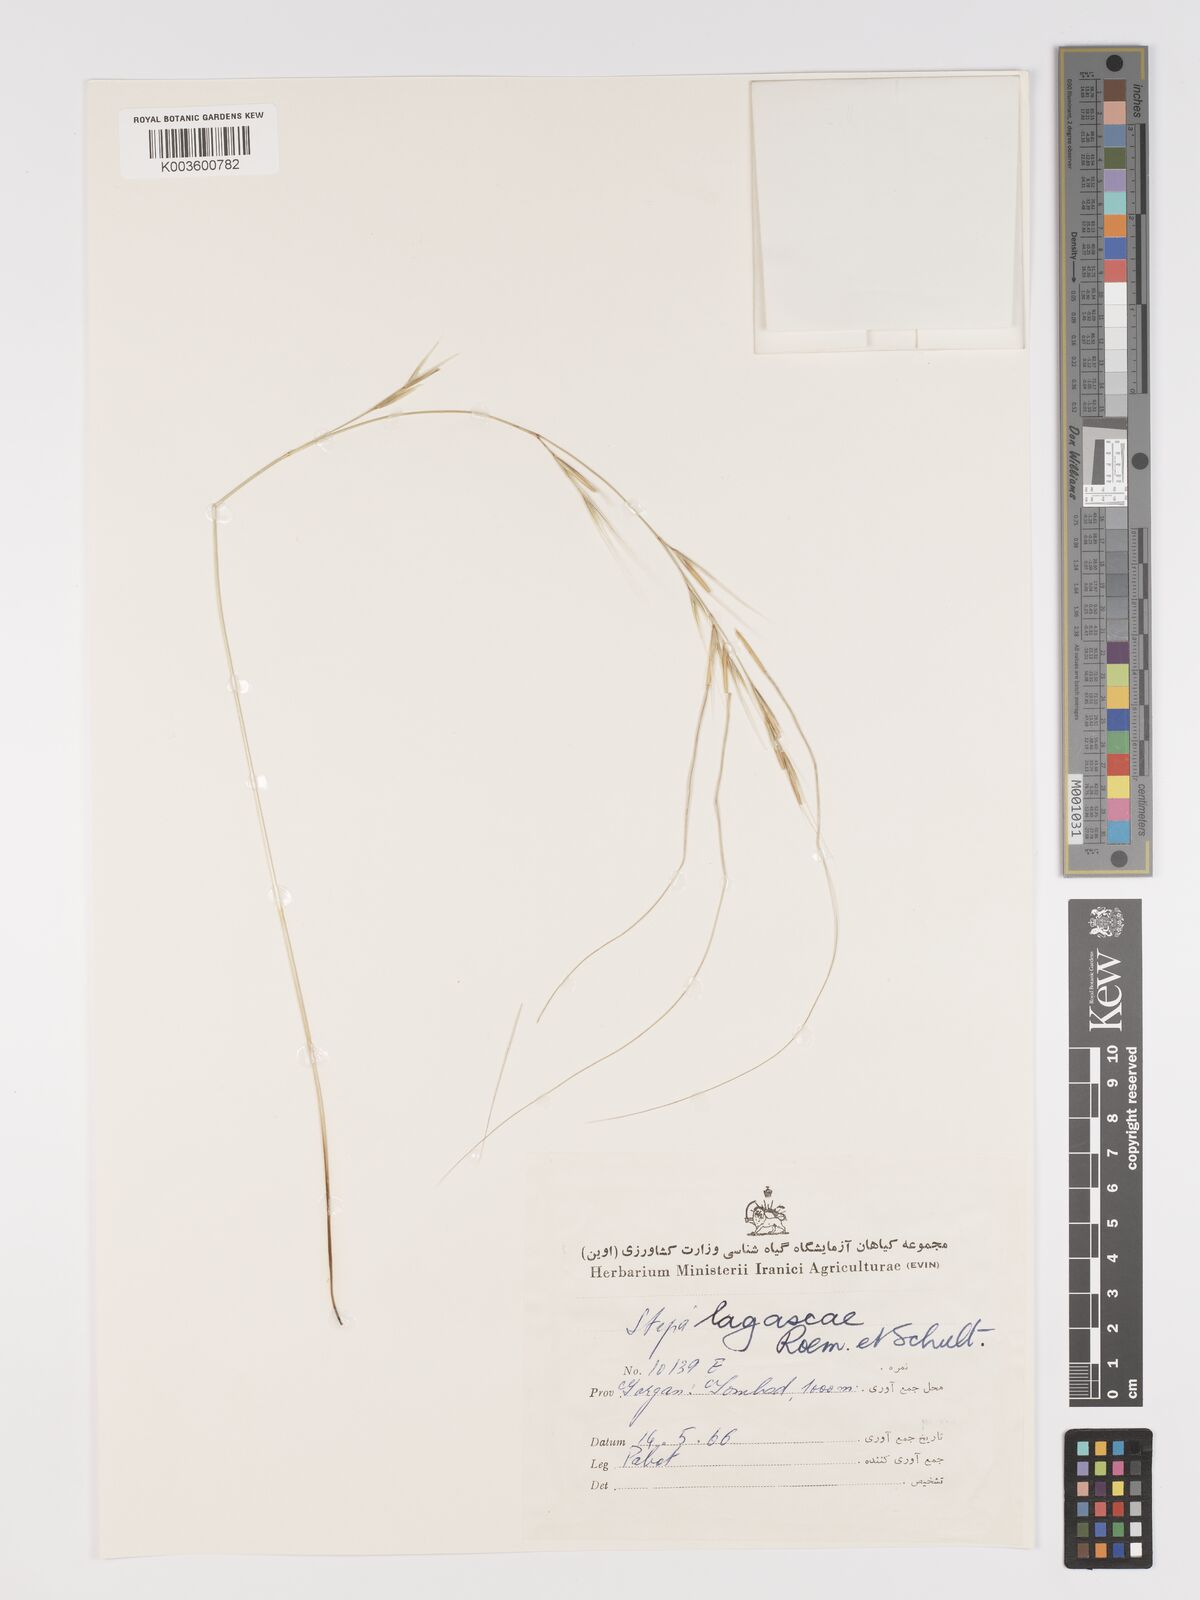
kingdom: Plantae
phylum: Tracheophyta
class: Liliopsida
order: Poales
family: Poaceae
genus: Stipa
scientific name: Stipa lagascae
